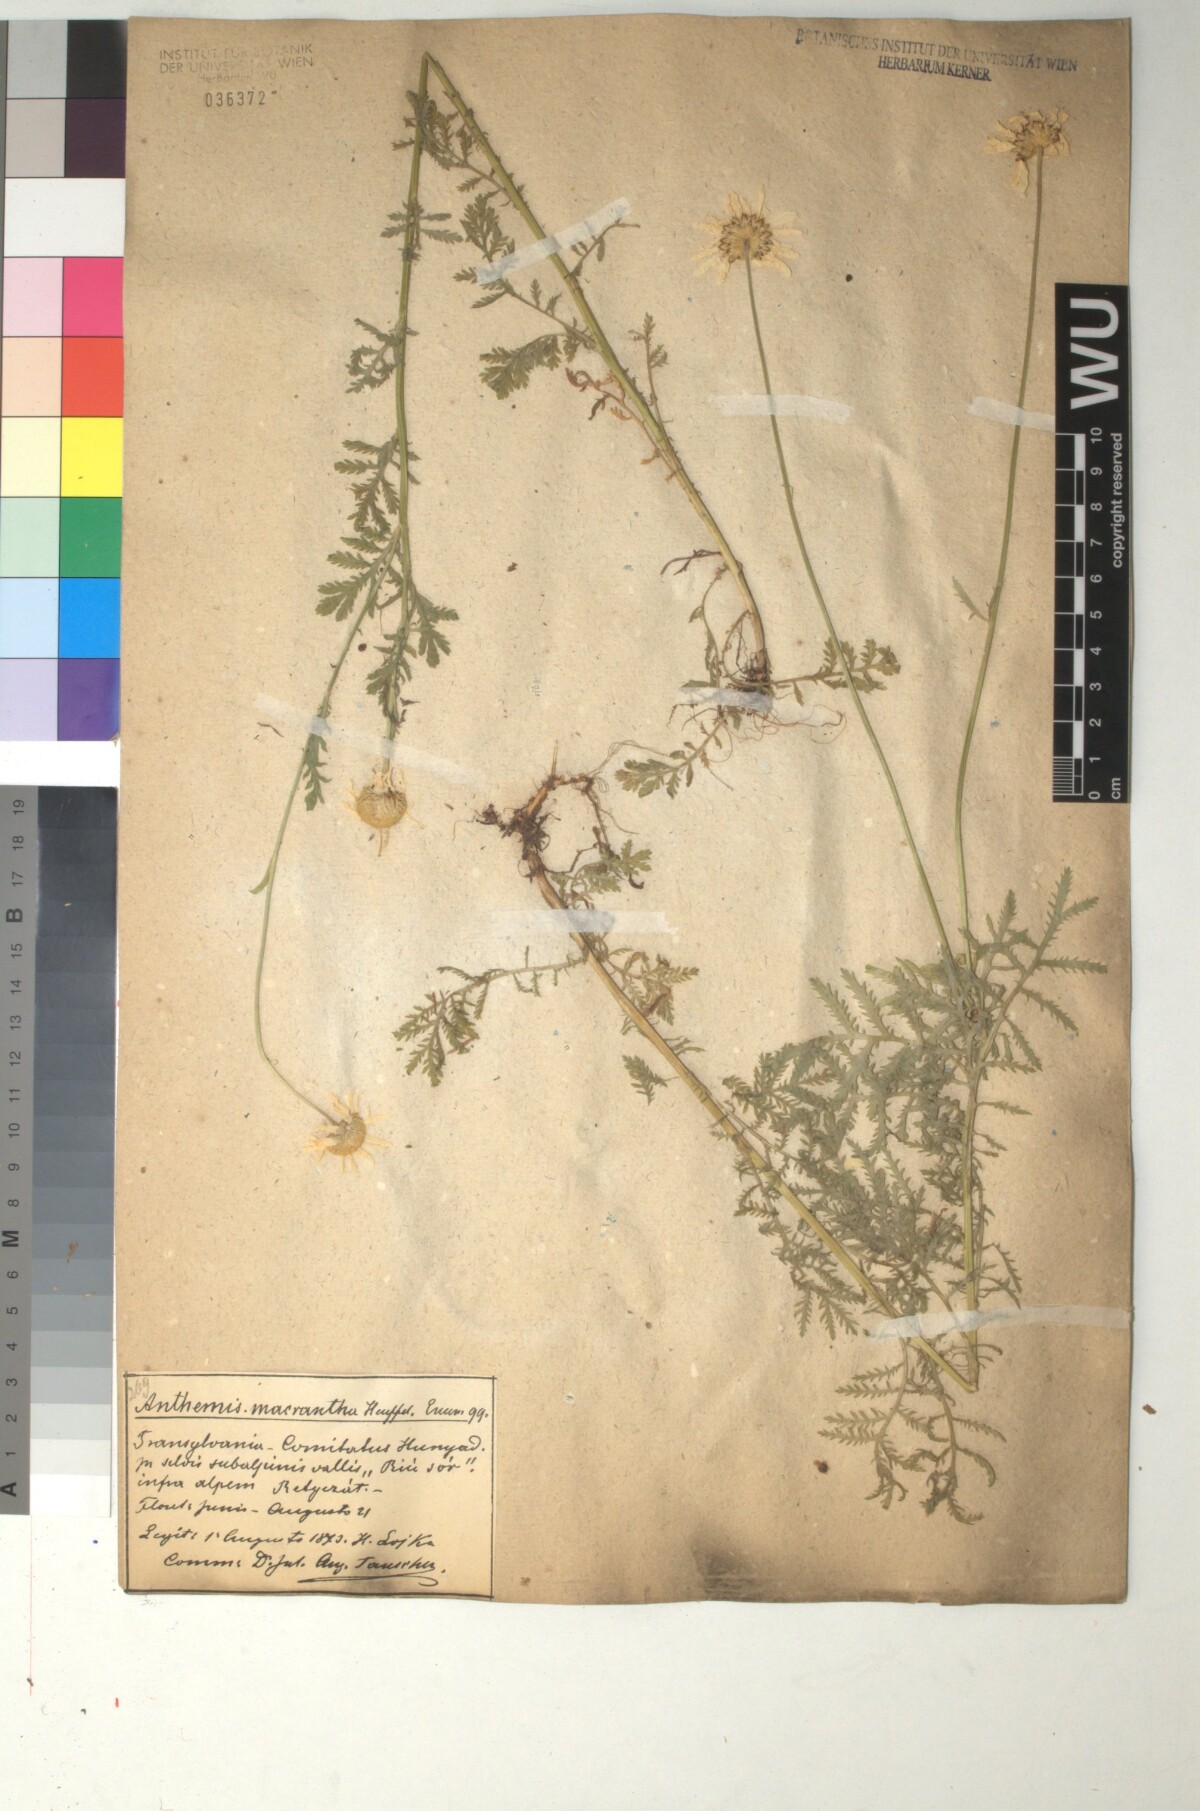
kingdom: Plantae
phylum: Tracheophyta
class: Magnoliopsida
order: Asterales
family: Asteraceae
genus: Cota
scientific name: Cota macrantha
